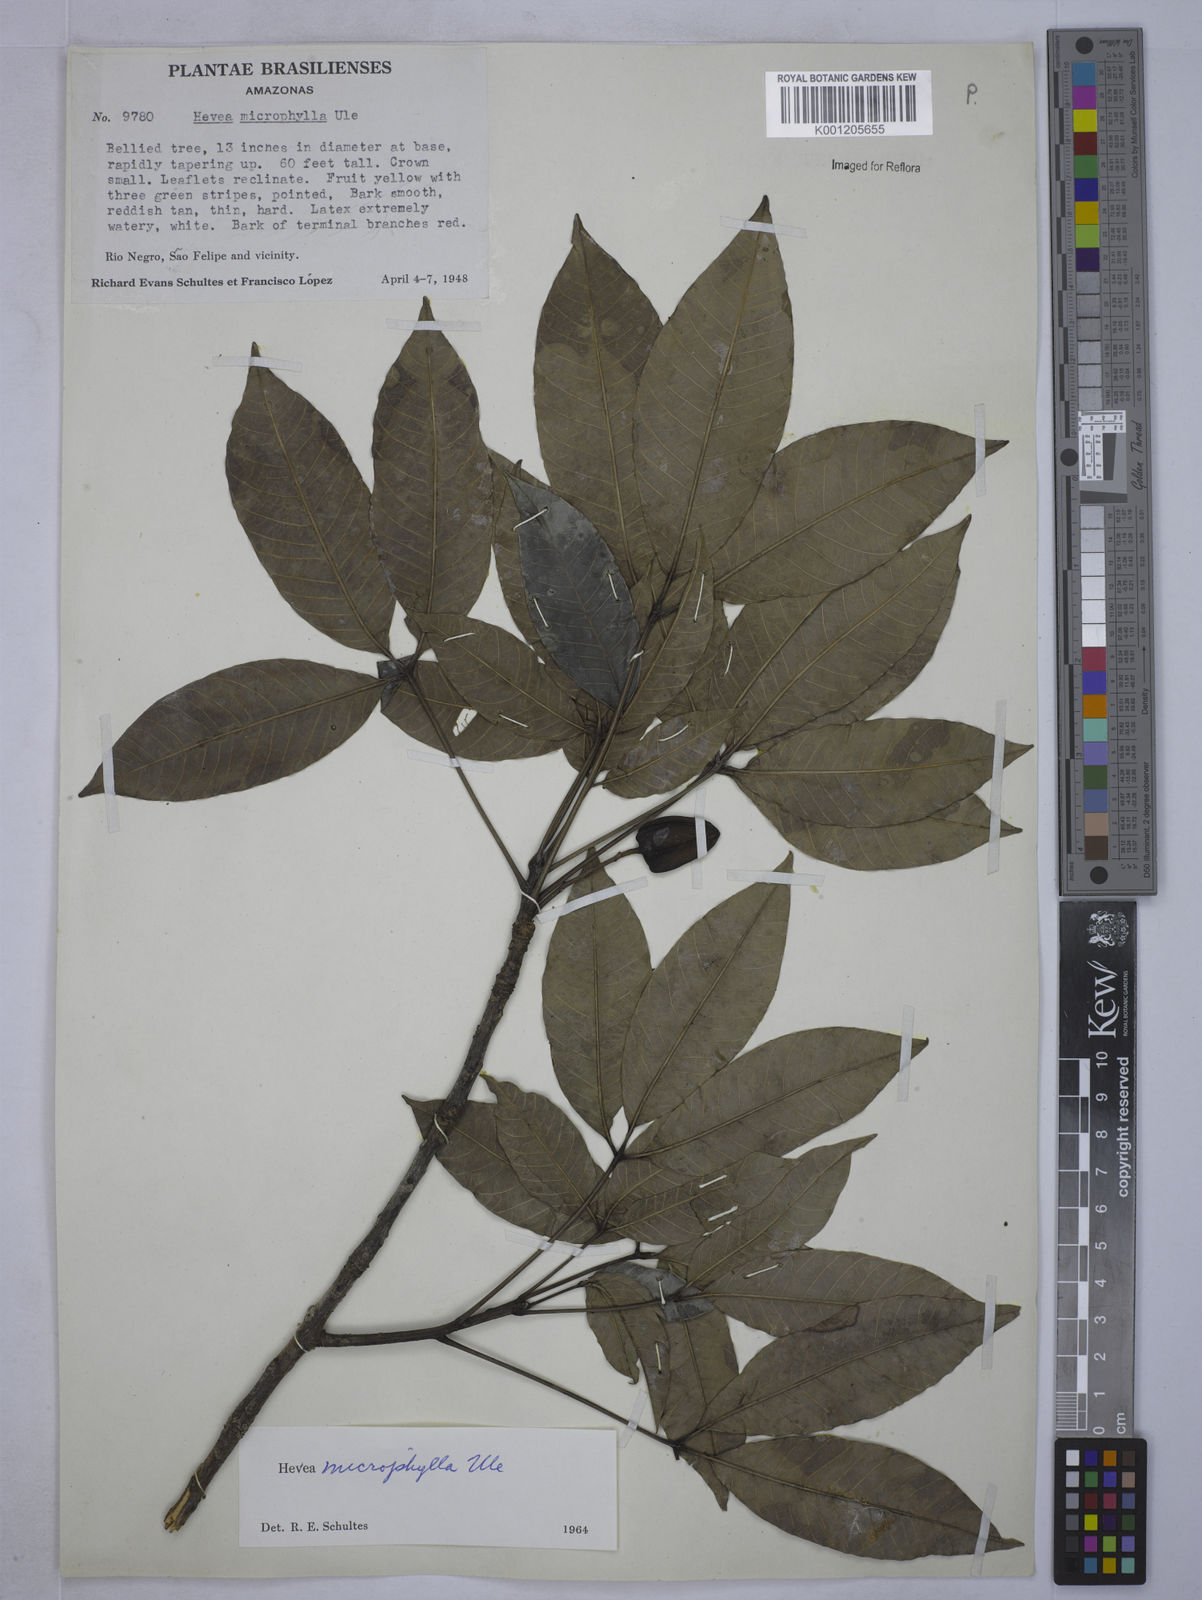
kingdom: Plantae
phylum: Tracheophyta
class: Magnoliopsida
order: Malpighiales
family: Euphorbiaceae
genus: Hevea
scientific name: Hevea microphylla
